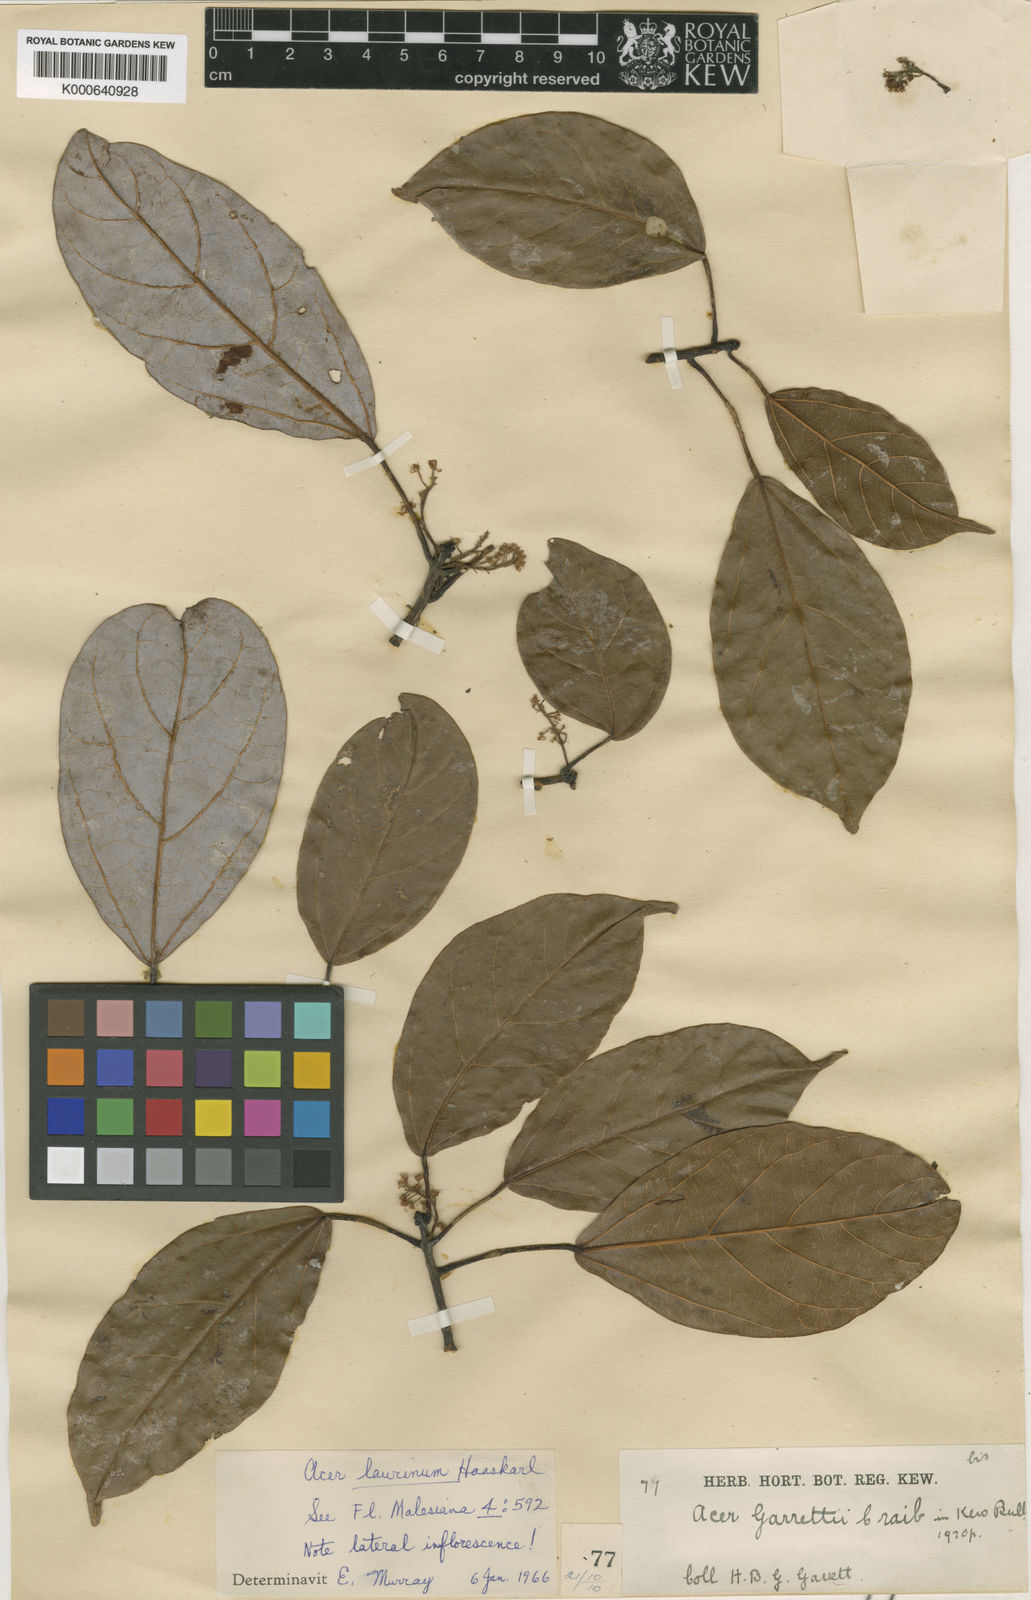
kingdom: Plantae
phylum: Tracheophyta
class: Magnoliopsida
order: Sapindales
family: Sapindaceae
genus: Acer
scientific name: Acer laurinum
